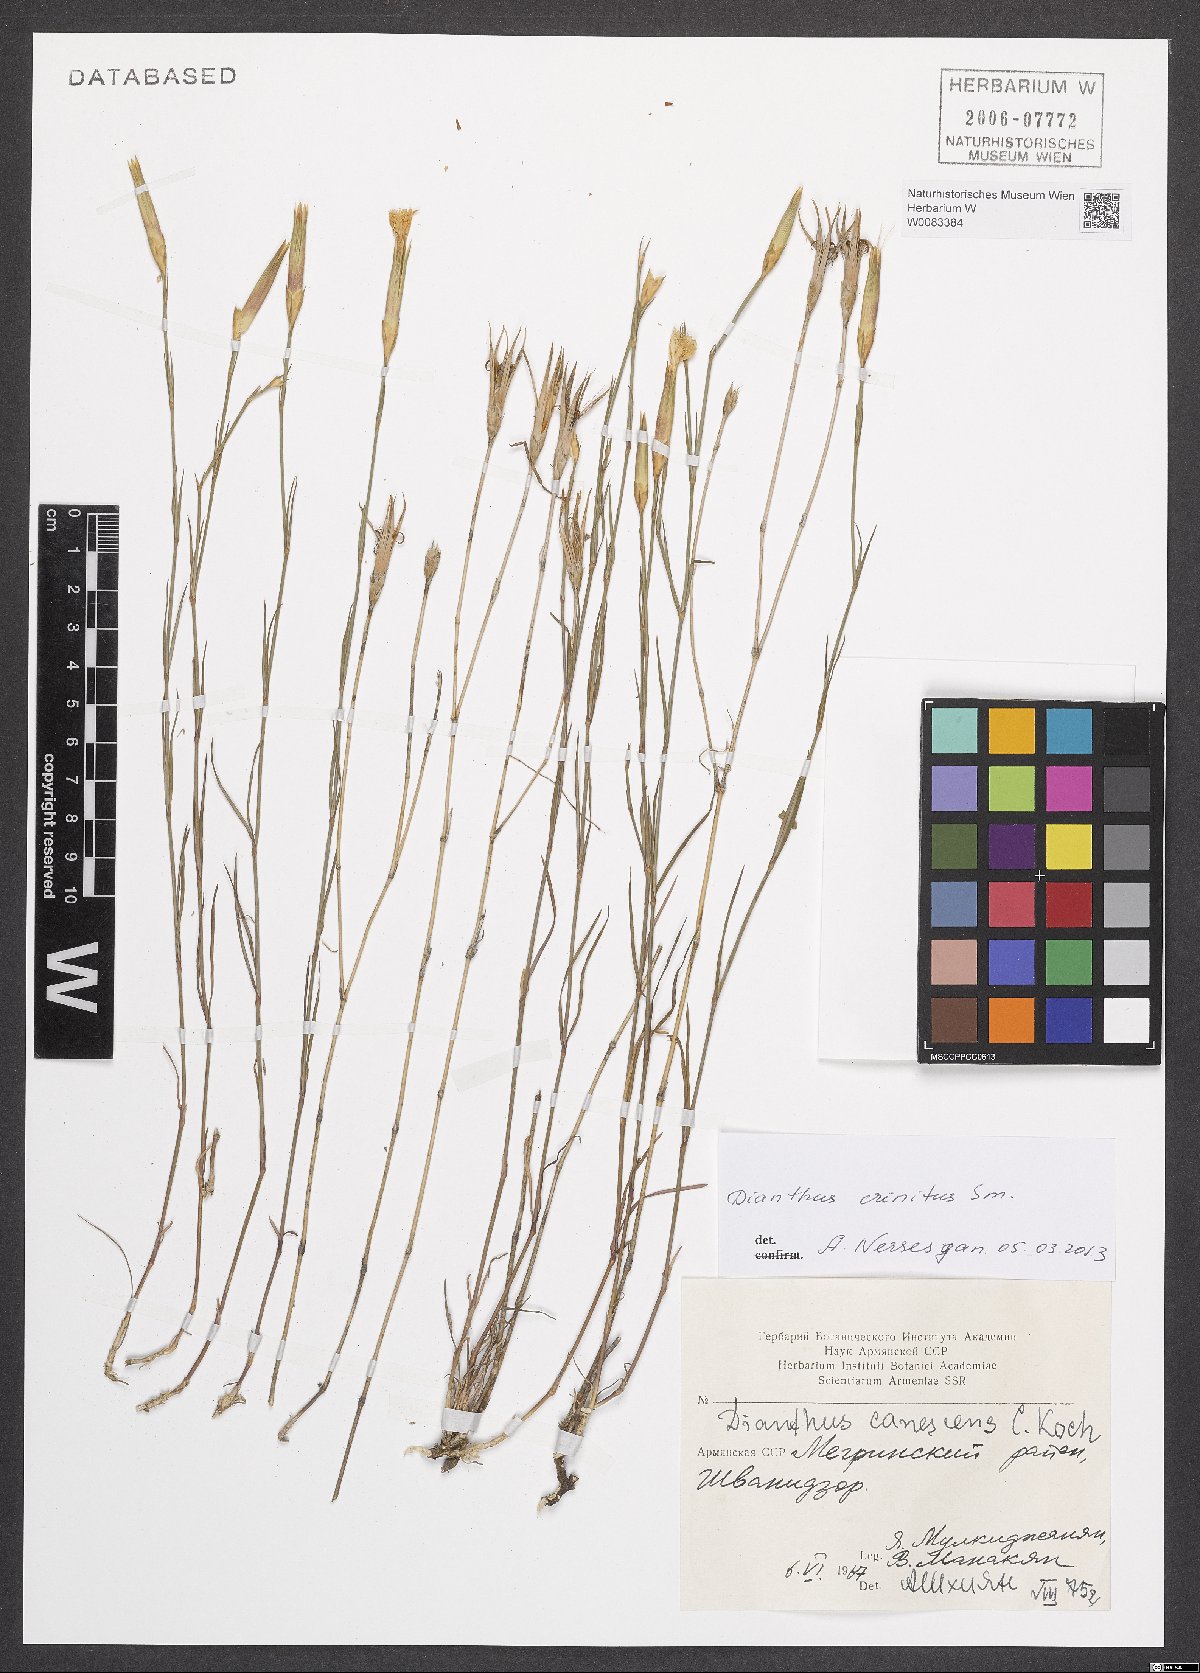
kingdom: Plantae
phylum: Tracheophyta
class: Magnoliopsida
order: Caryophyllales
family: Caryophyllaceae
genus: Dianthus
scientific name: Dianthus crinitus
